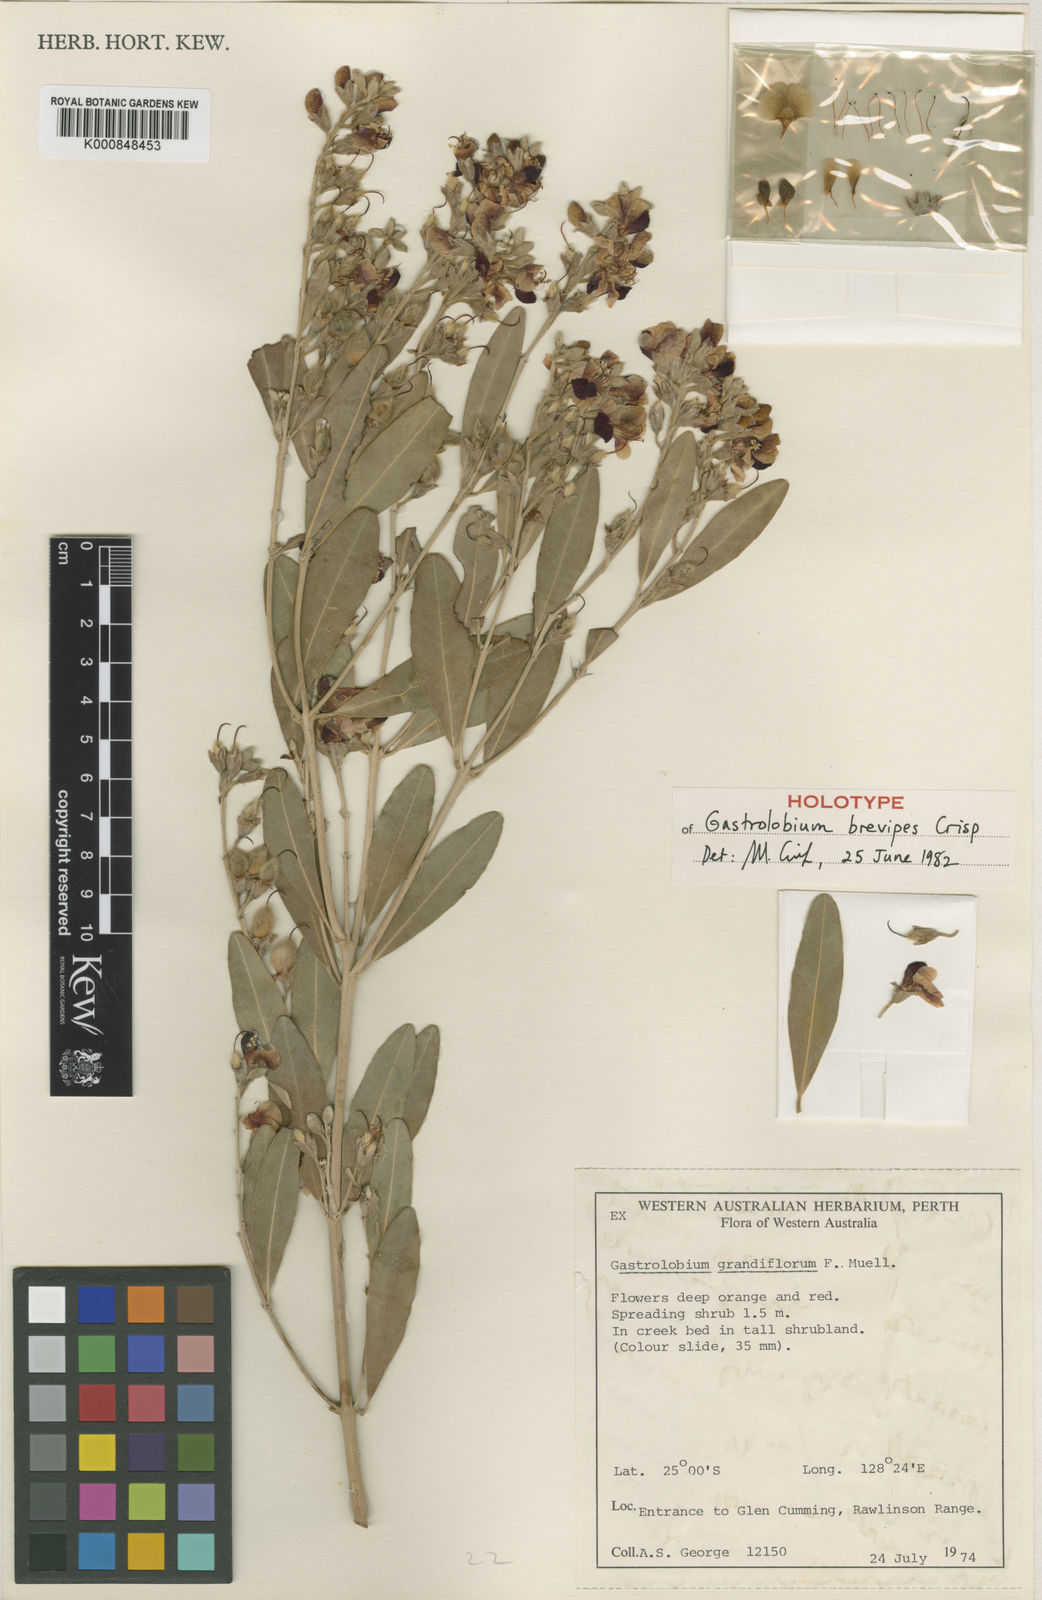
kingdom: Plantae
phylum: Tracheophyta
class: Magnoliopsida
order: Fabales
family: Fabaceae
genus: Gastrolobium
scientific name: Gastrolobium brevipes
